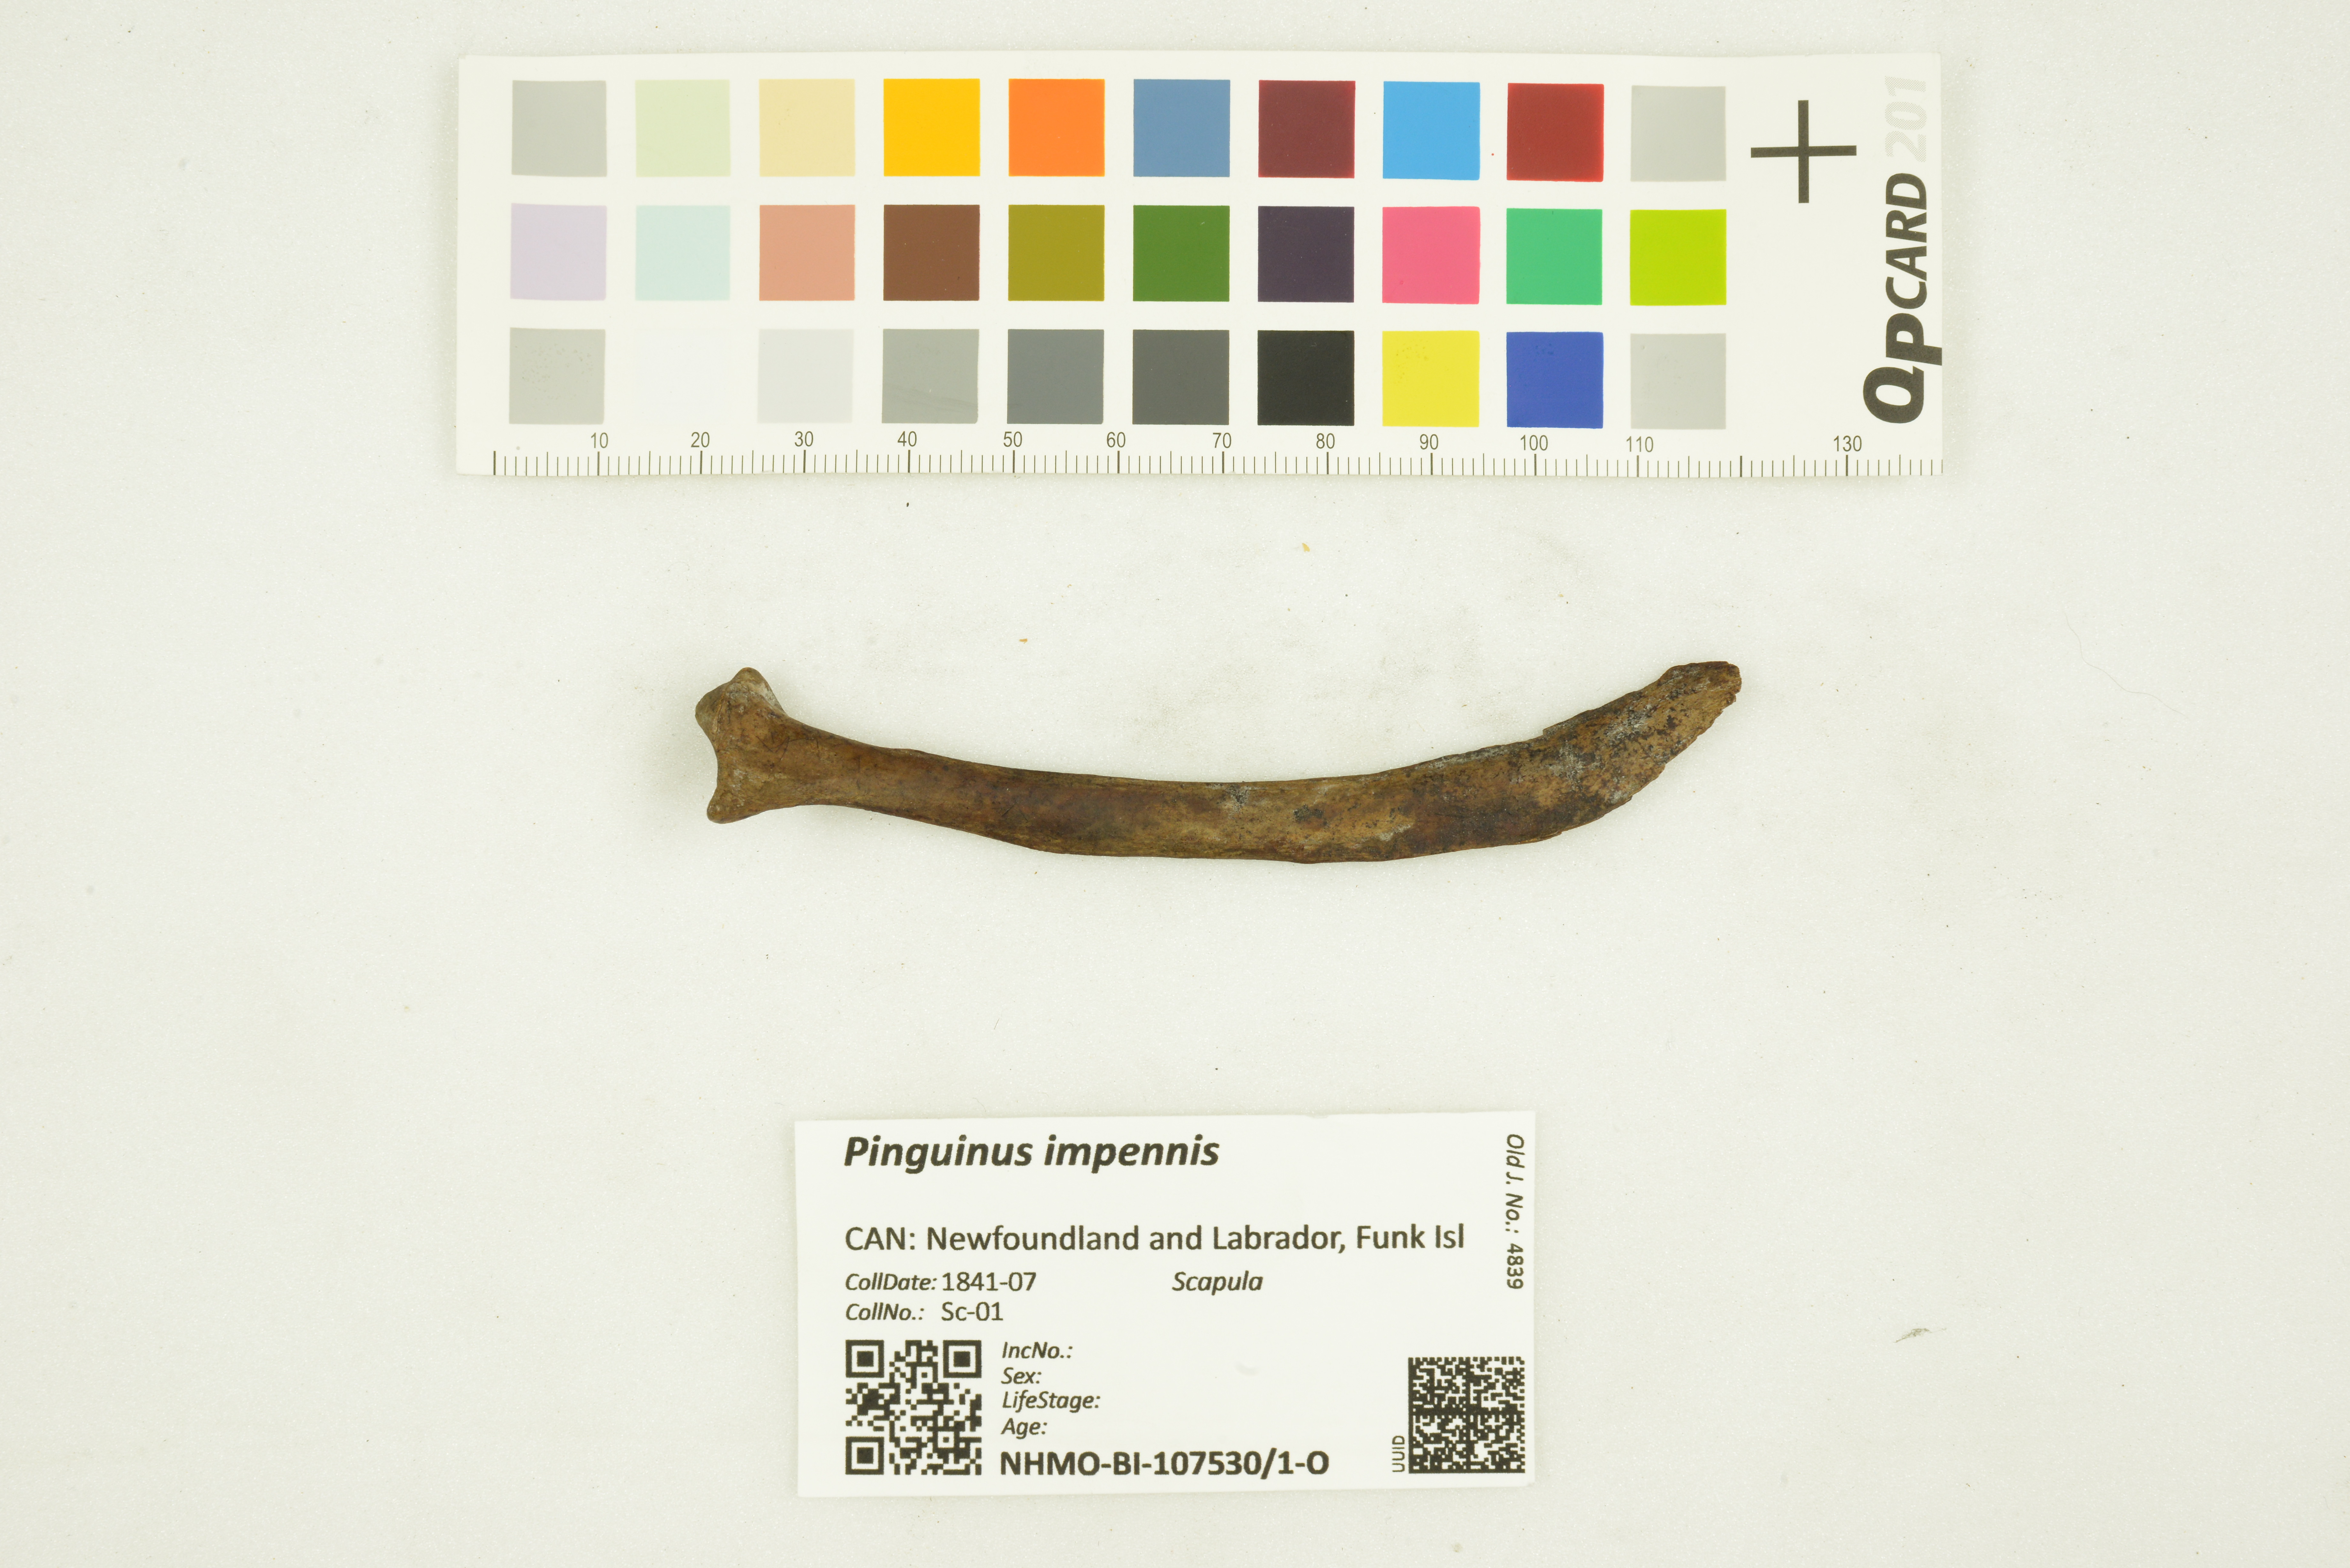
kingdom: Animalia
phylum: Chordata
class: Aves
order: Charadriiformes
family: Alcidae
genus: Pinguinus
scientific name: Pinguinus impennis
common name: Great auk
